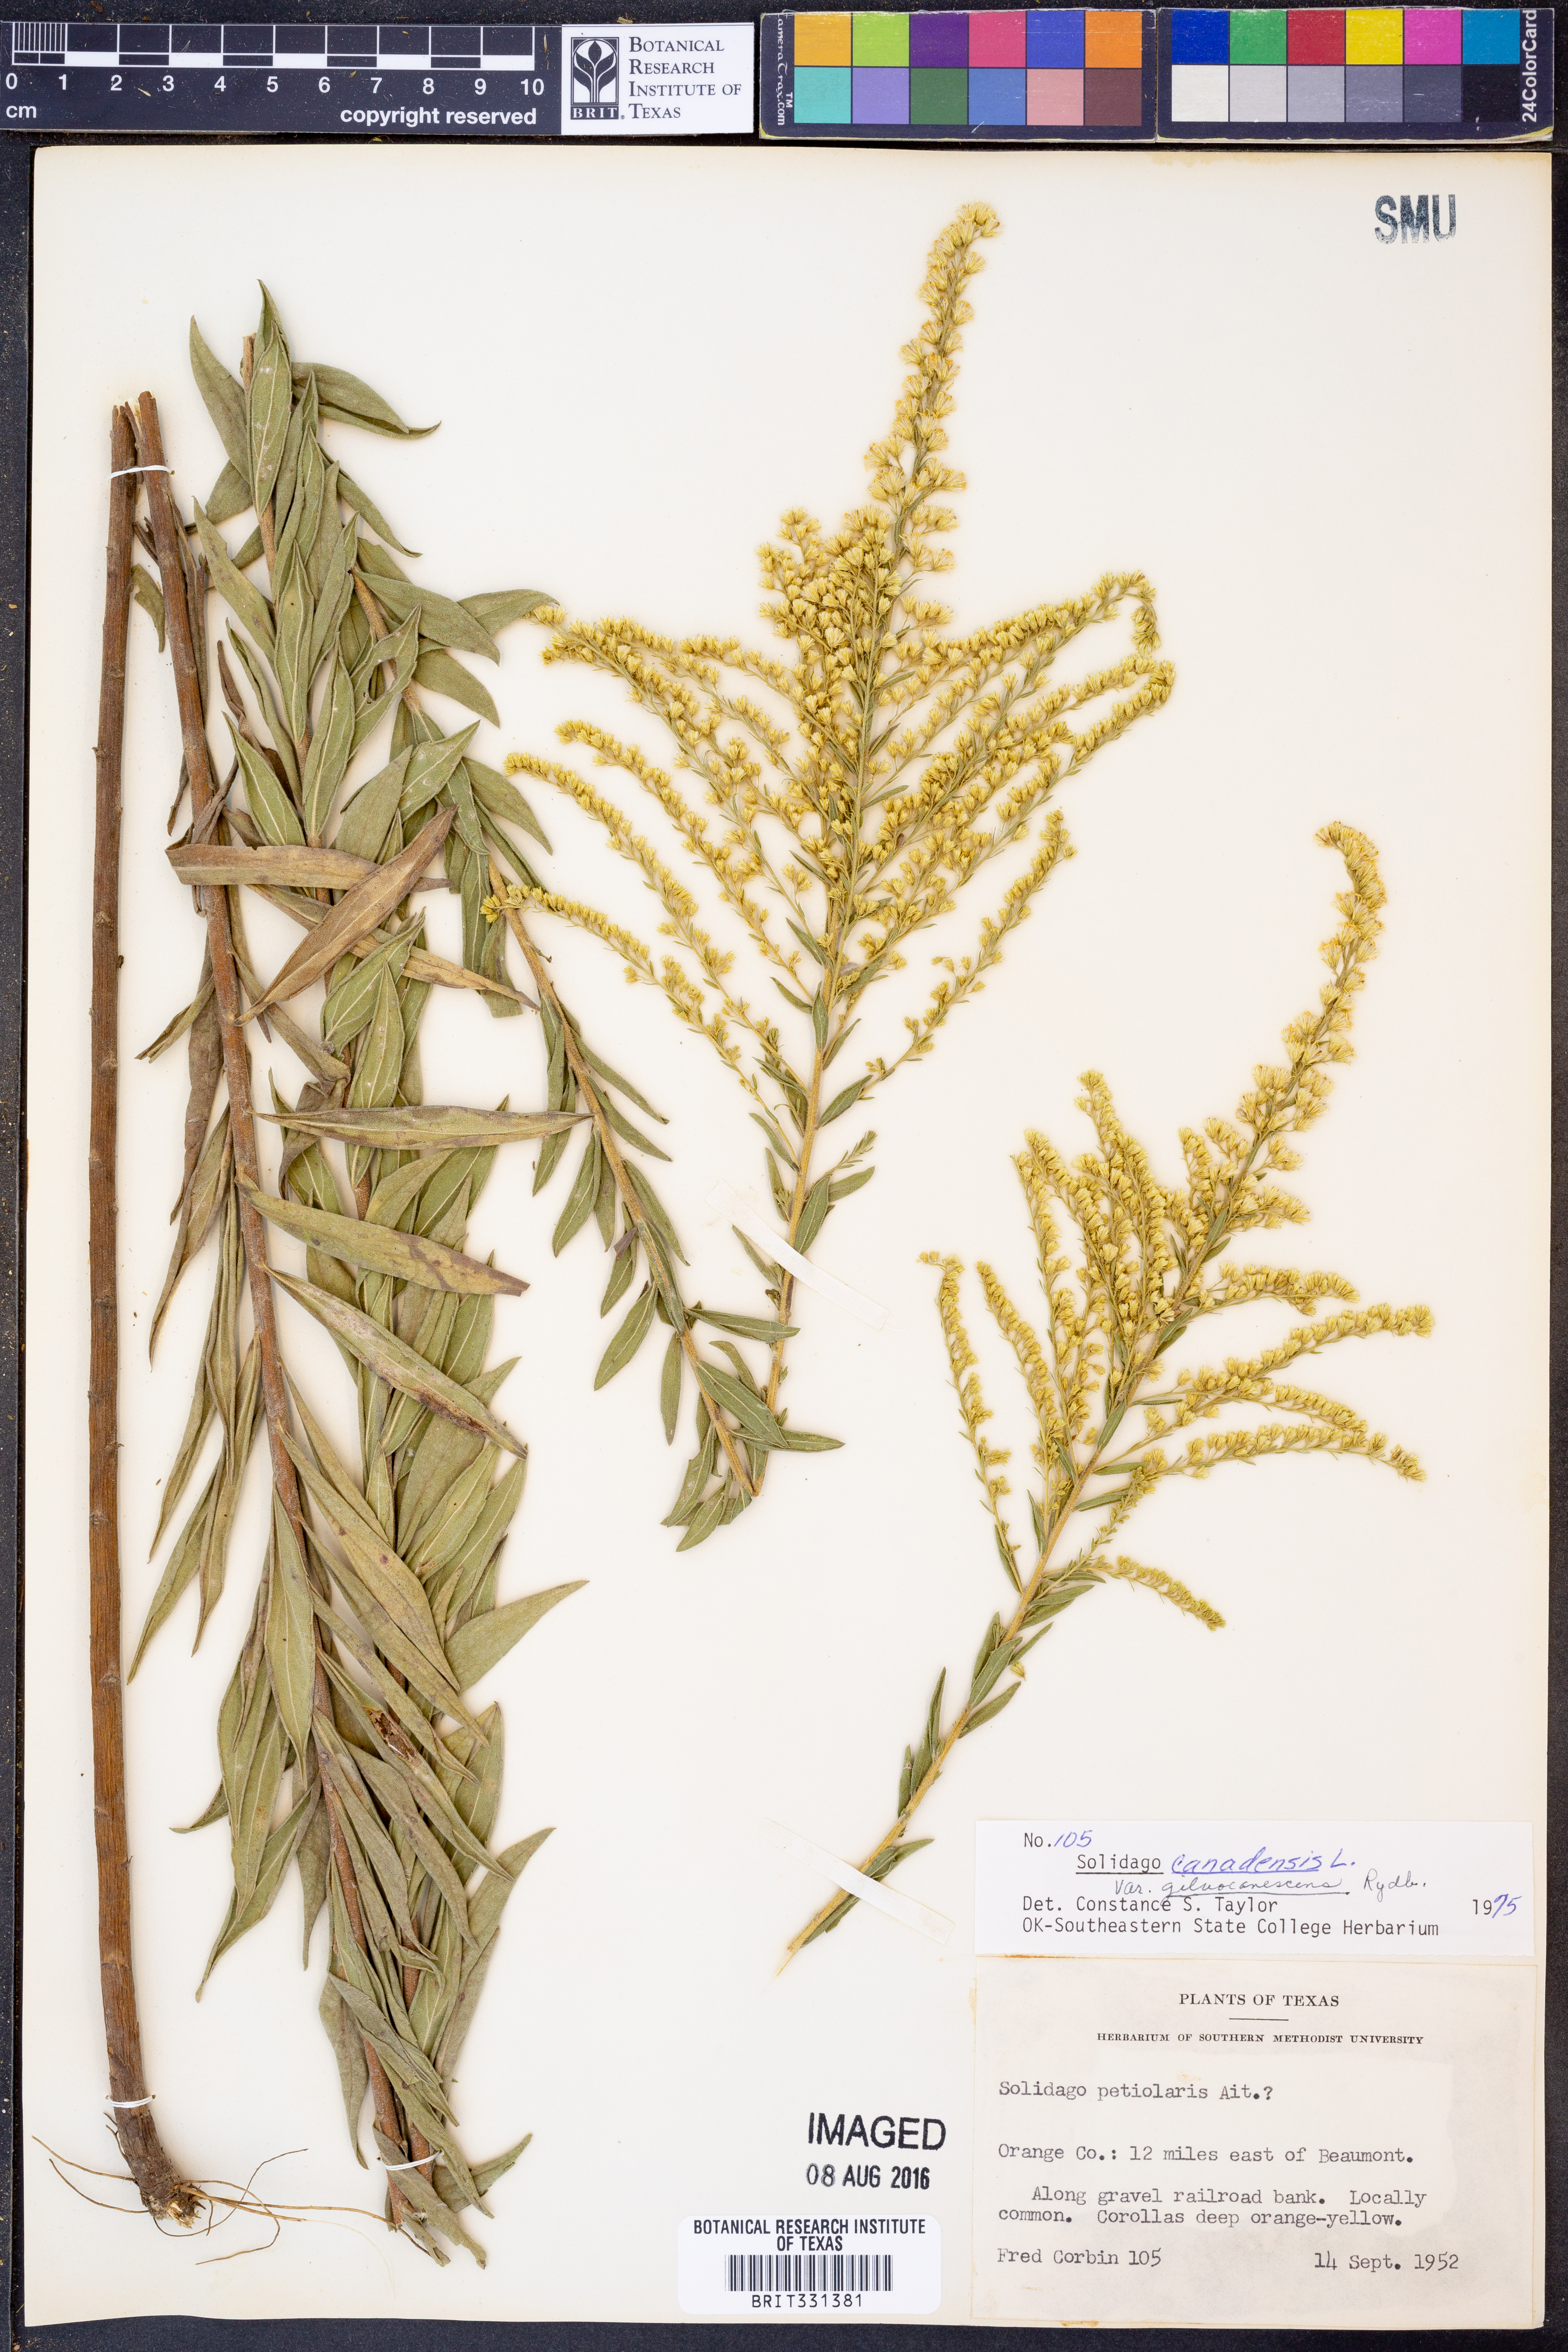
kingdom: Plantae
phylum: Tracheophyta
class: Magnoliopsida
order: Asterales
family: Asteraceae
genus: Solidago
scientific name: Solidago altissima
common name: Late goldenrod
